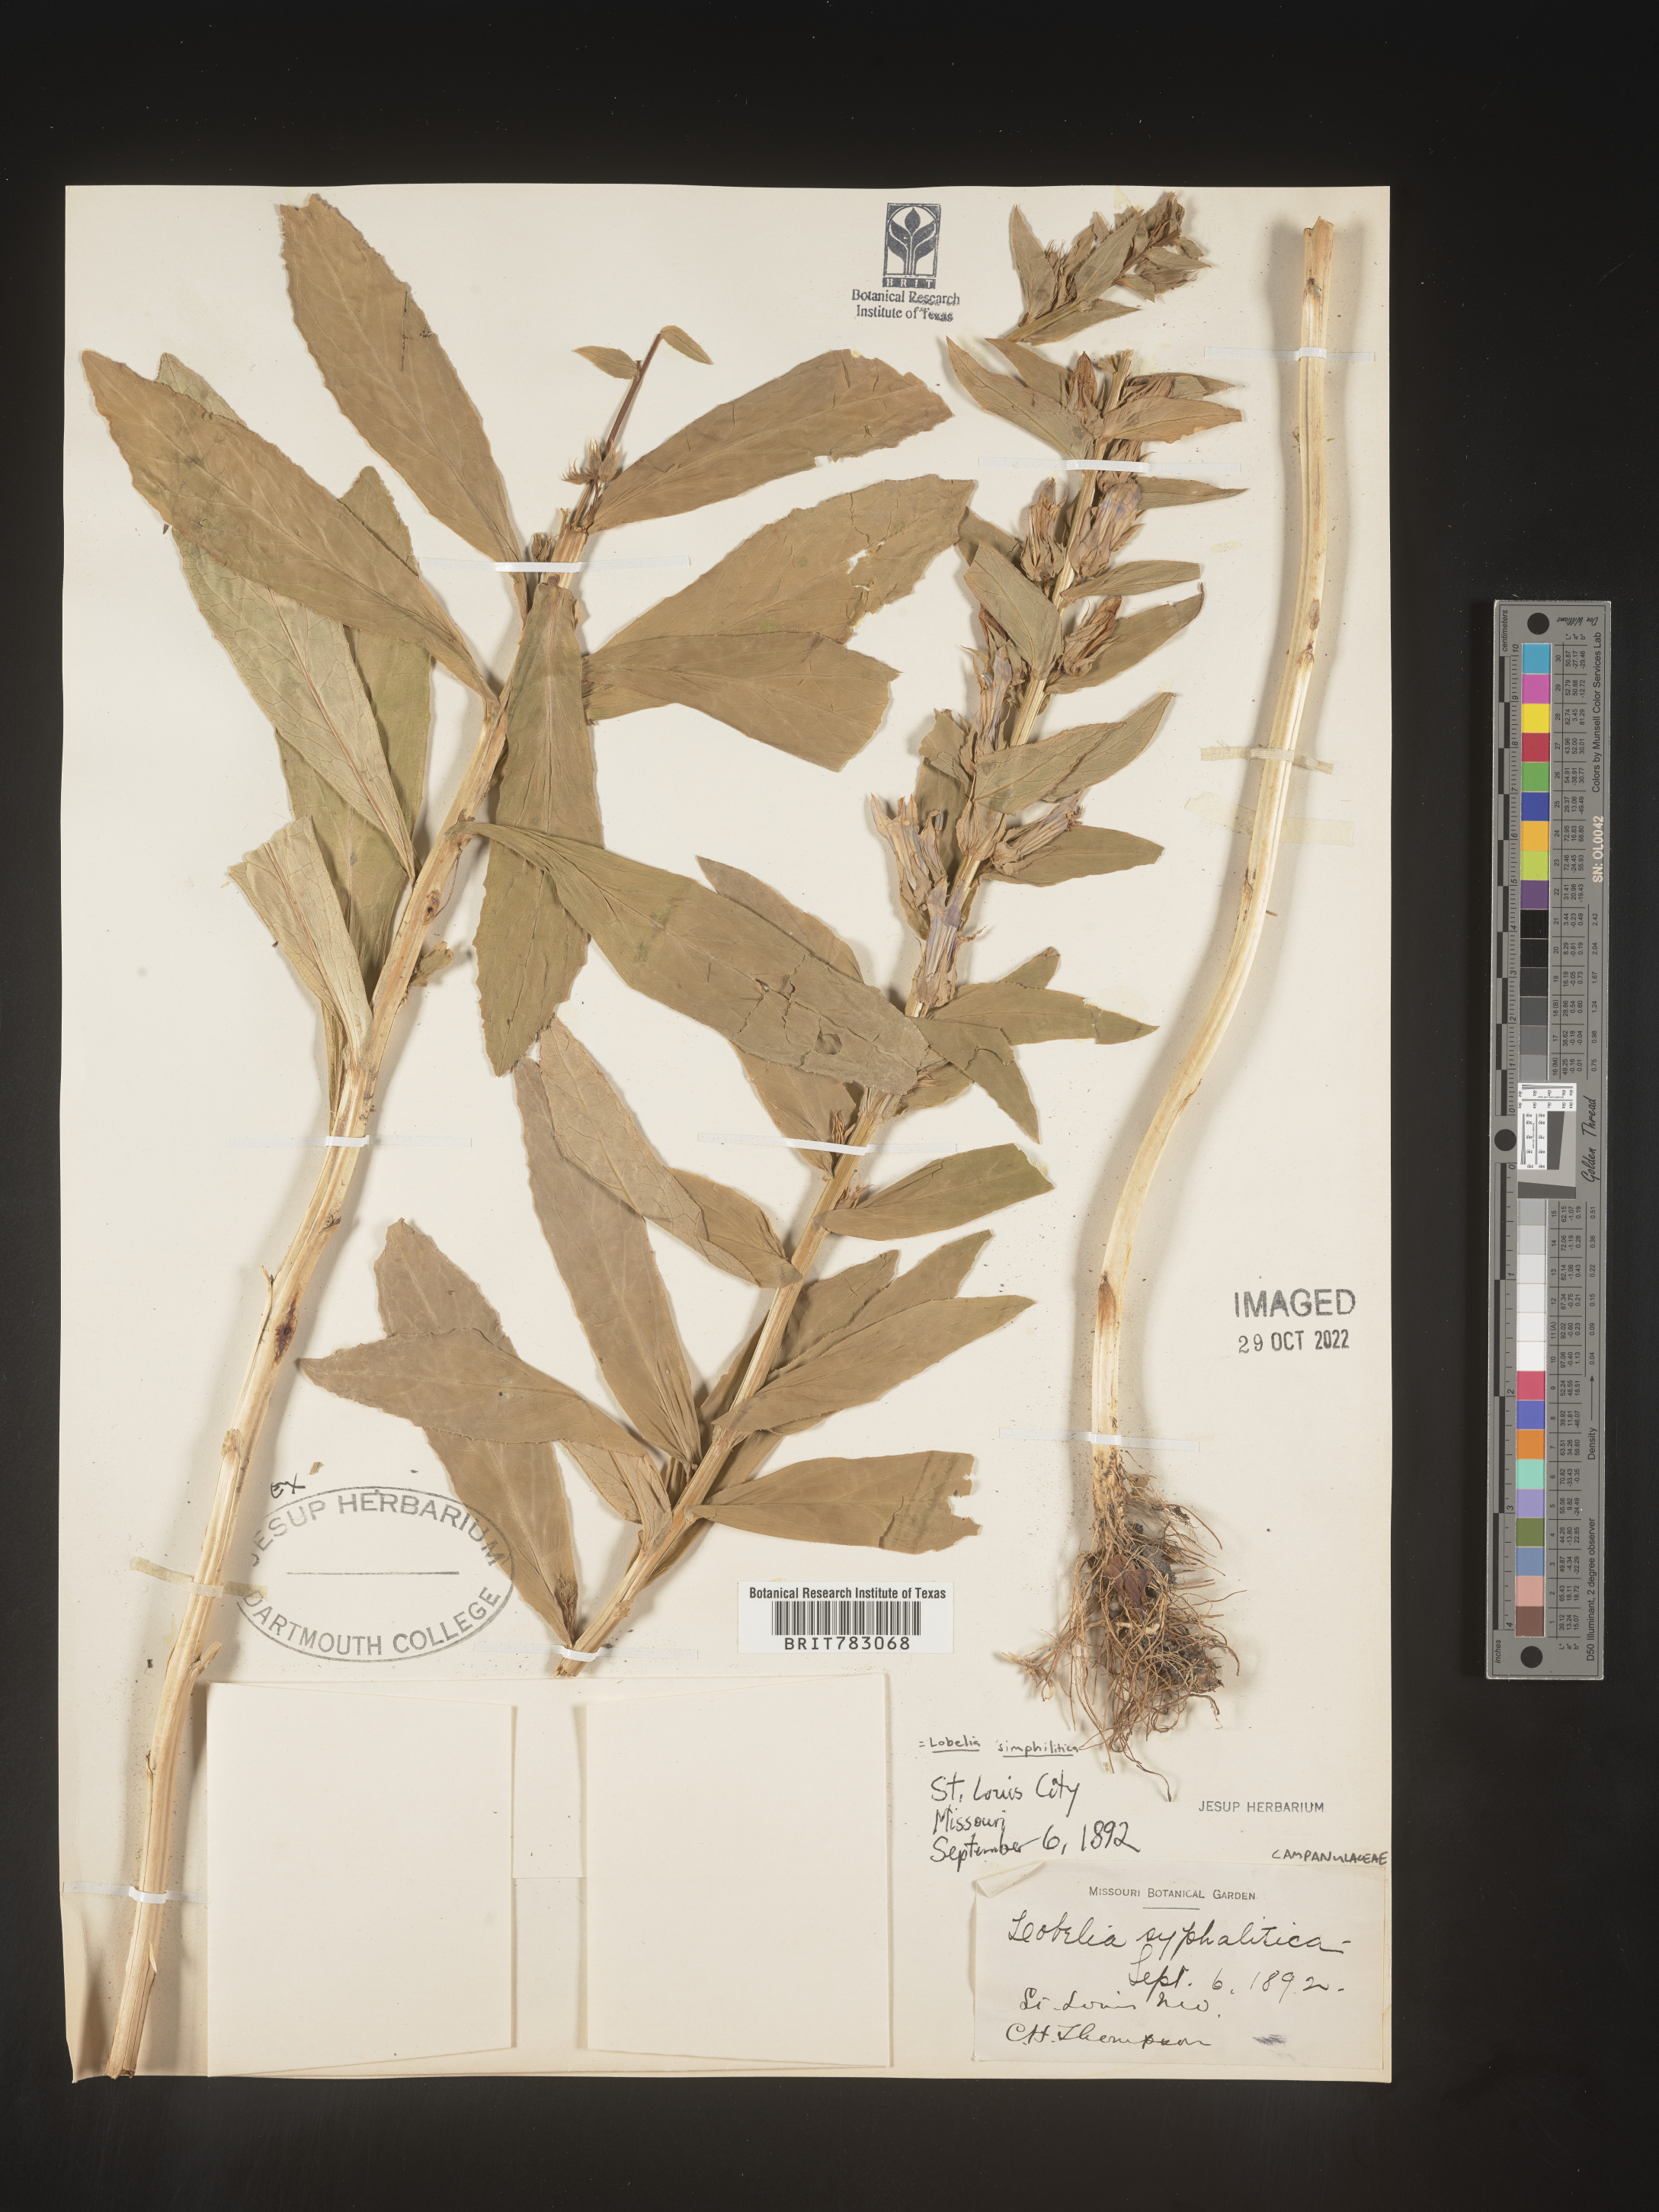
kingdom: Plantae
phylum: Tracheophyta
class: Magnoliopsida
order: Asterales
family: Campanulaceae
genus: Lobelia
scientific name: Lobelia siphilitica
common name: Great lobelia
